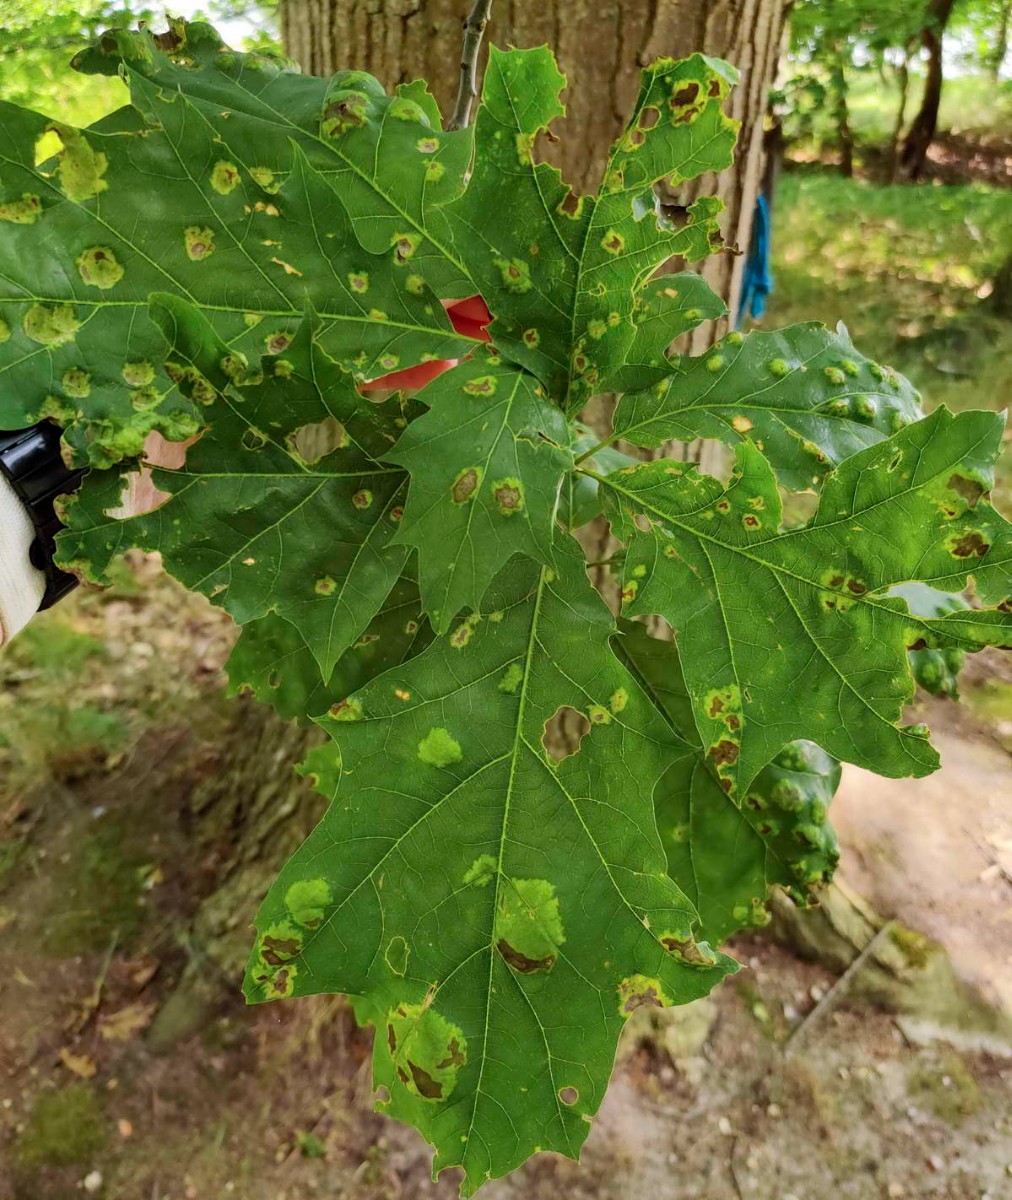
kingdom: Fungi
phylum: Ascomycota
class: Taphrinomycetes
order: Taphrinales
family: Taphrinaceae
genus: Taphrina
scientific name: Taphrina caerulescens
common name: Oak leaf blister
